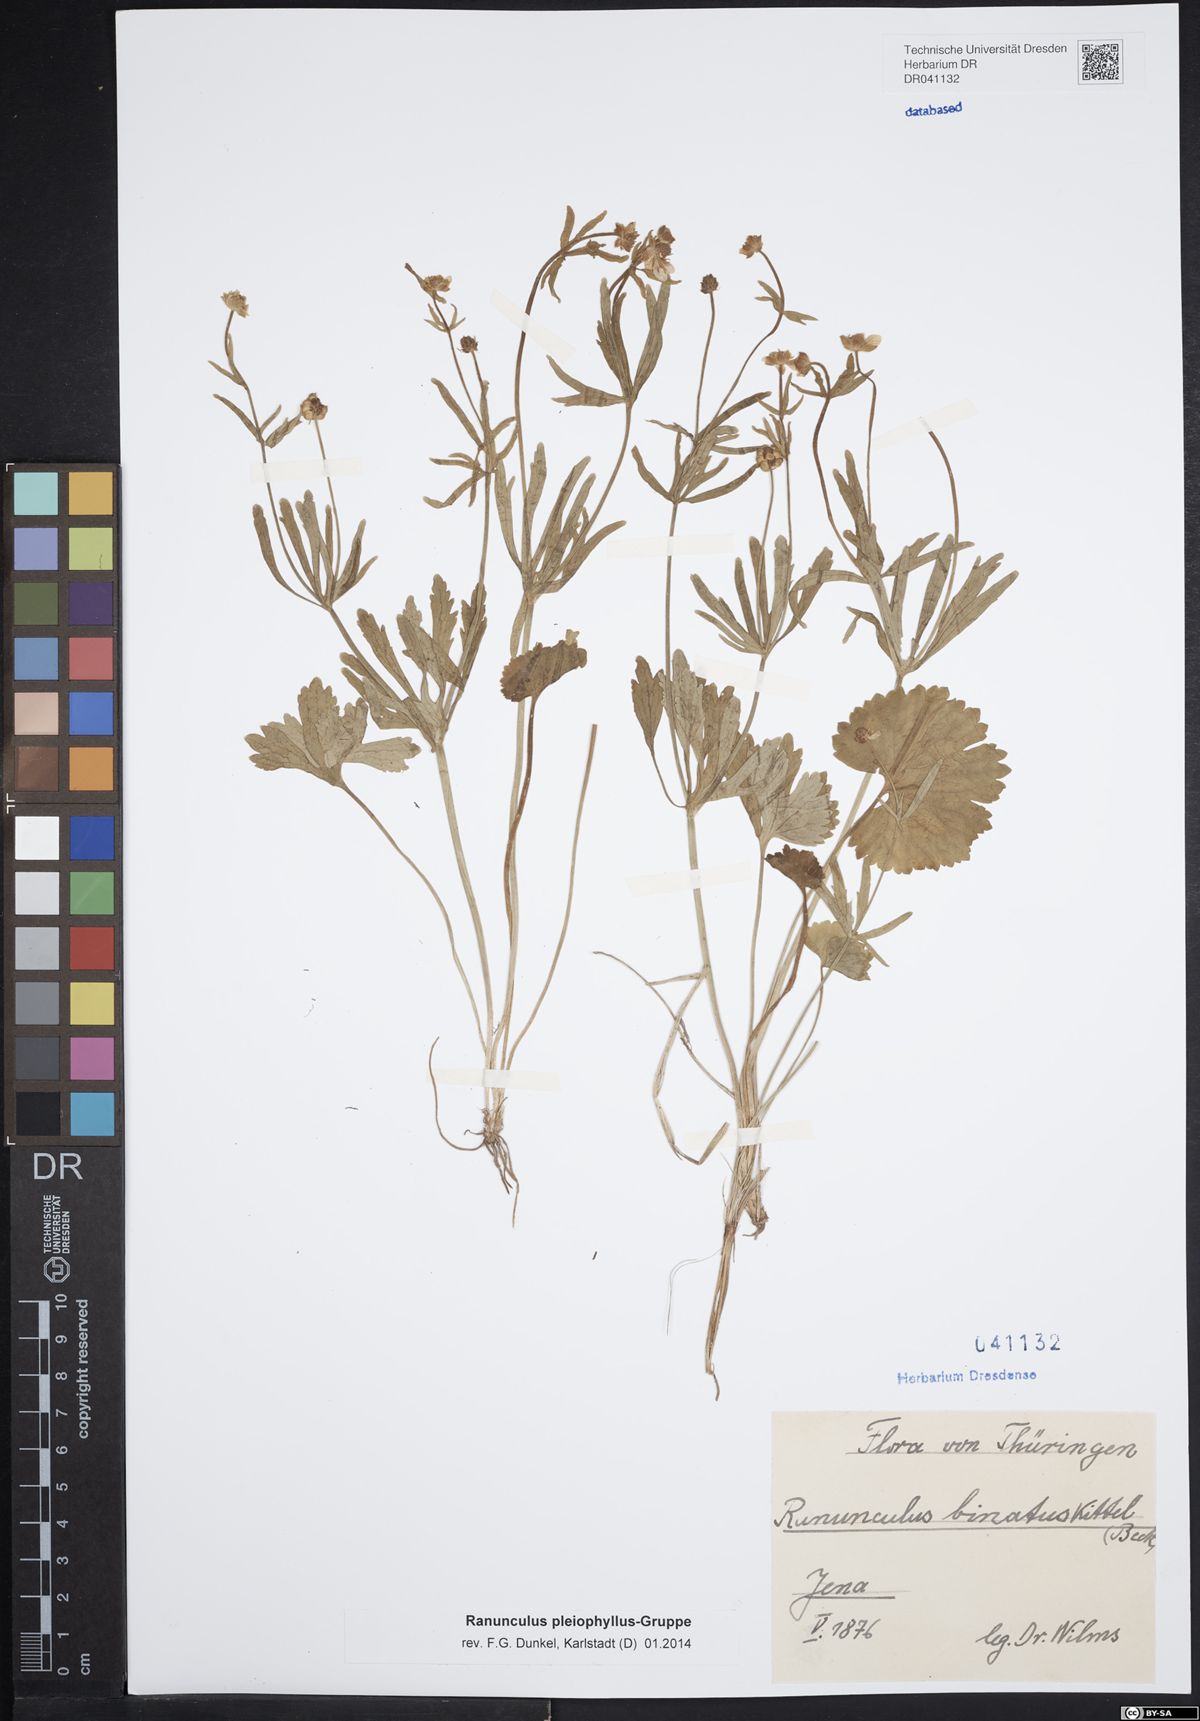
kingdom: Plantae
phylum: Tracheophyta
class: Magnoliopsida
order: Ranunculales
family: Ranunculaceae
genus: Ranunculus
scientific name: Ranunculus pleiophyllus
